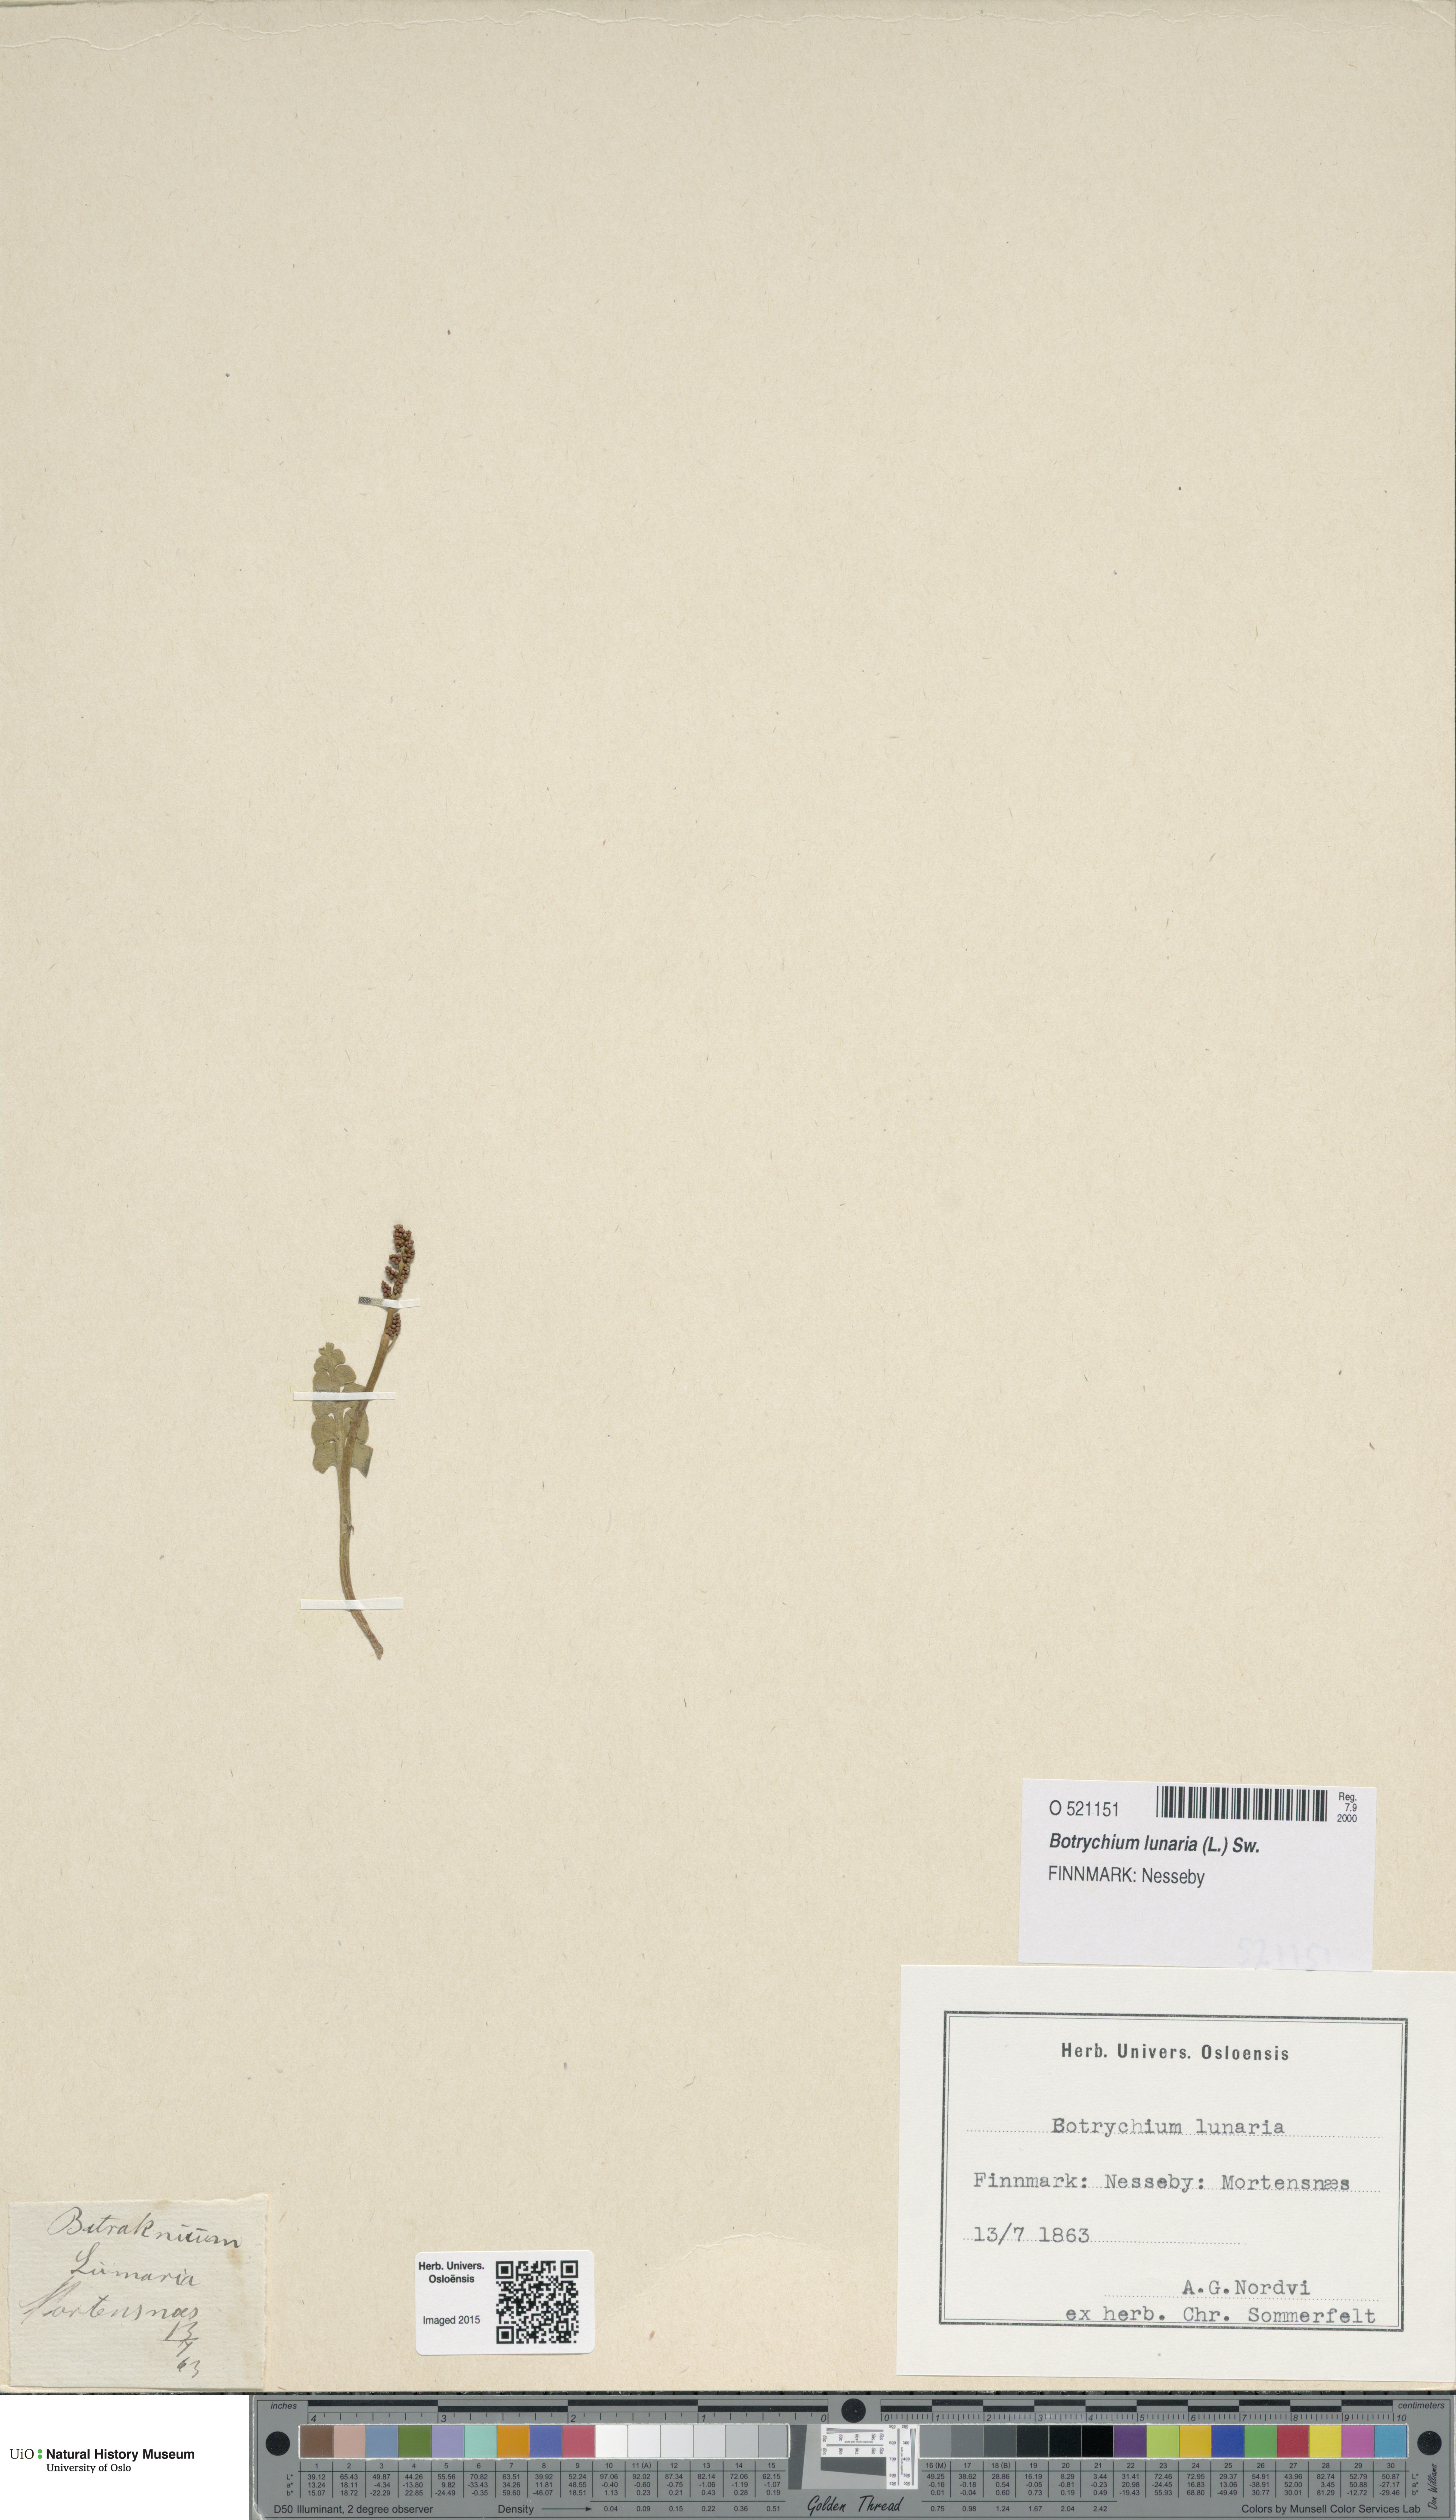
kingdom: Plantae
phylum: Tracheophyta
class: Polypodiopsida
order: Ophioglossales
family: Ophioglossaceae
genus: Botrychium
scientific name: Botrychium lunaria
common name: Moonwort
